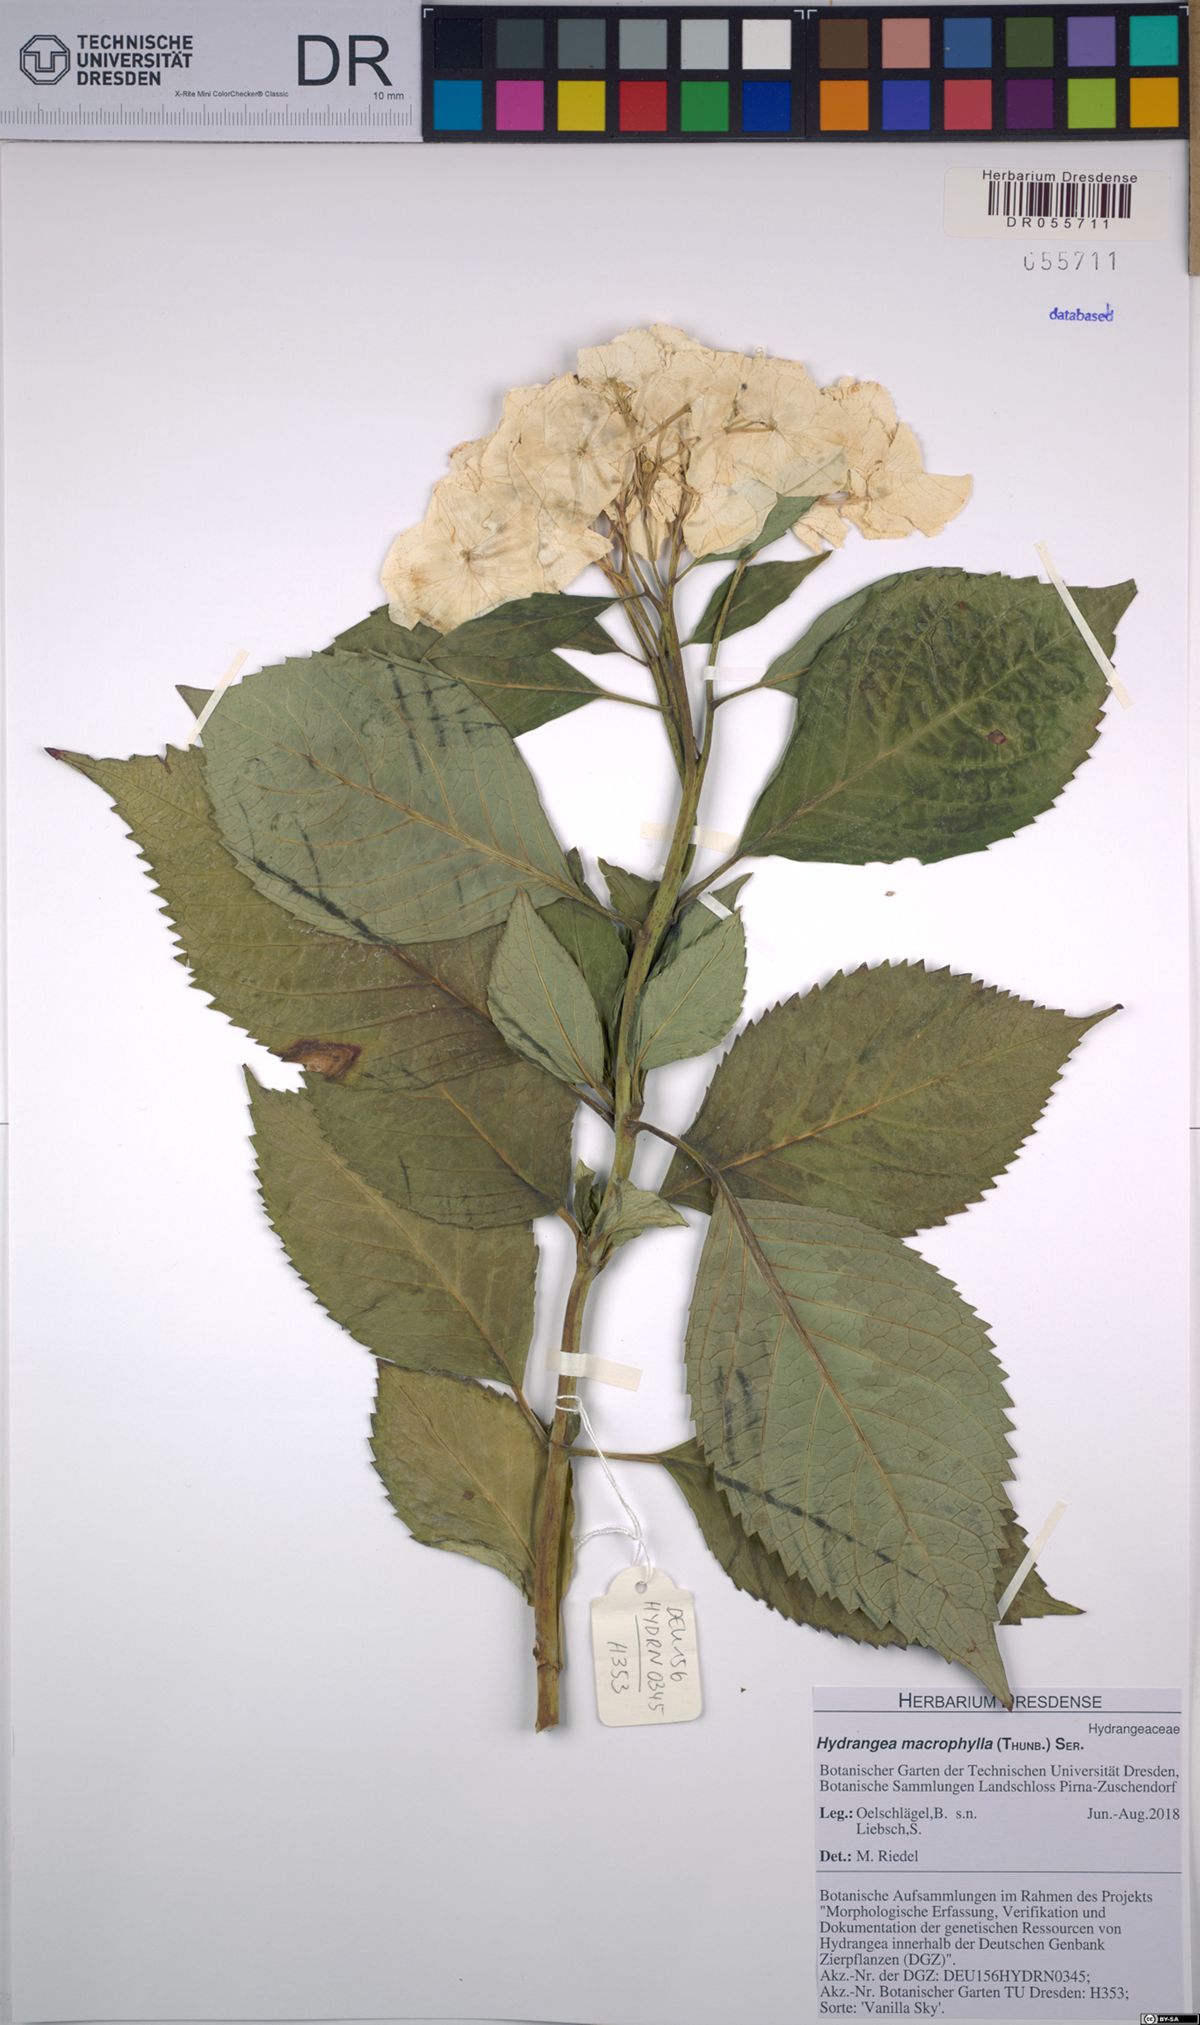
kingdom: Plantae
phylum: Tracheophyta
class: Magnoliopsida
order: Cornales
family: Hydrangeaceae
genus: Hydrangea
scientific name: Hydrangea macrophylla
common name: Hydrangea
